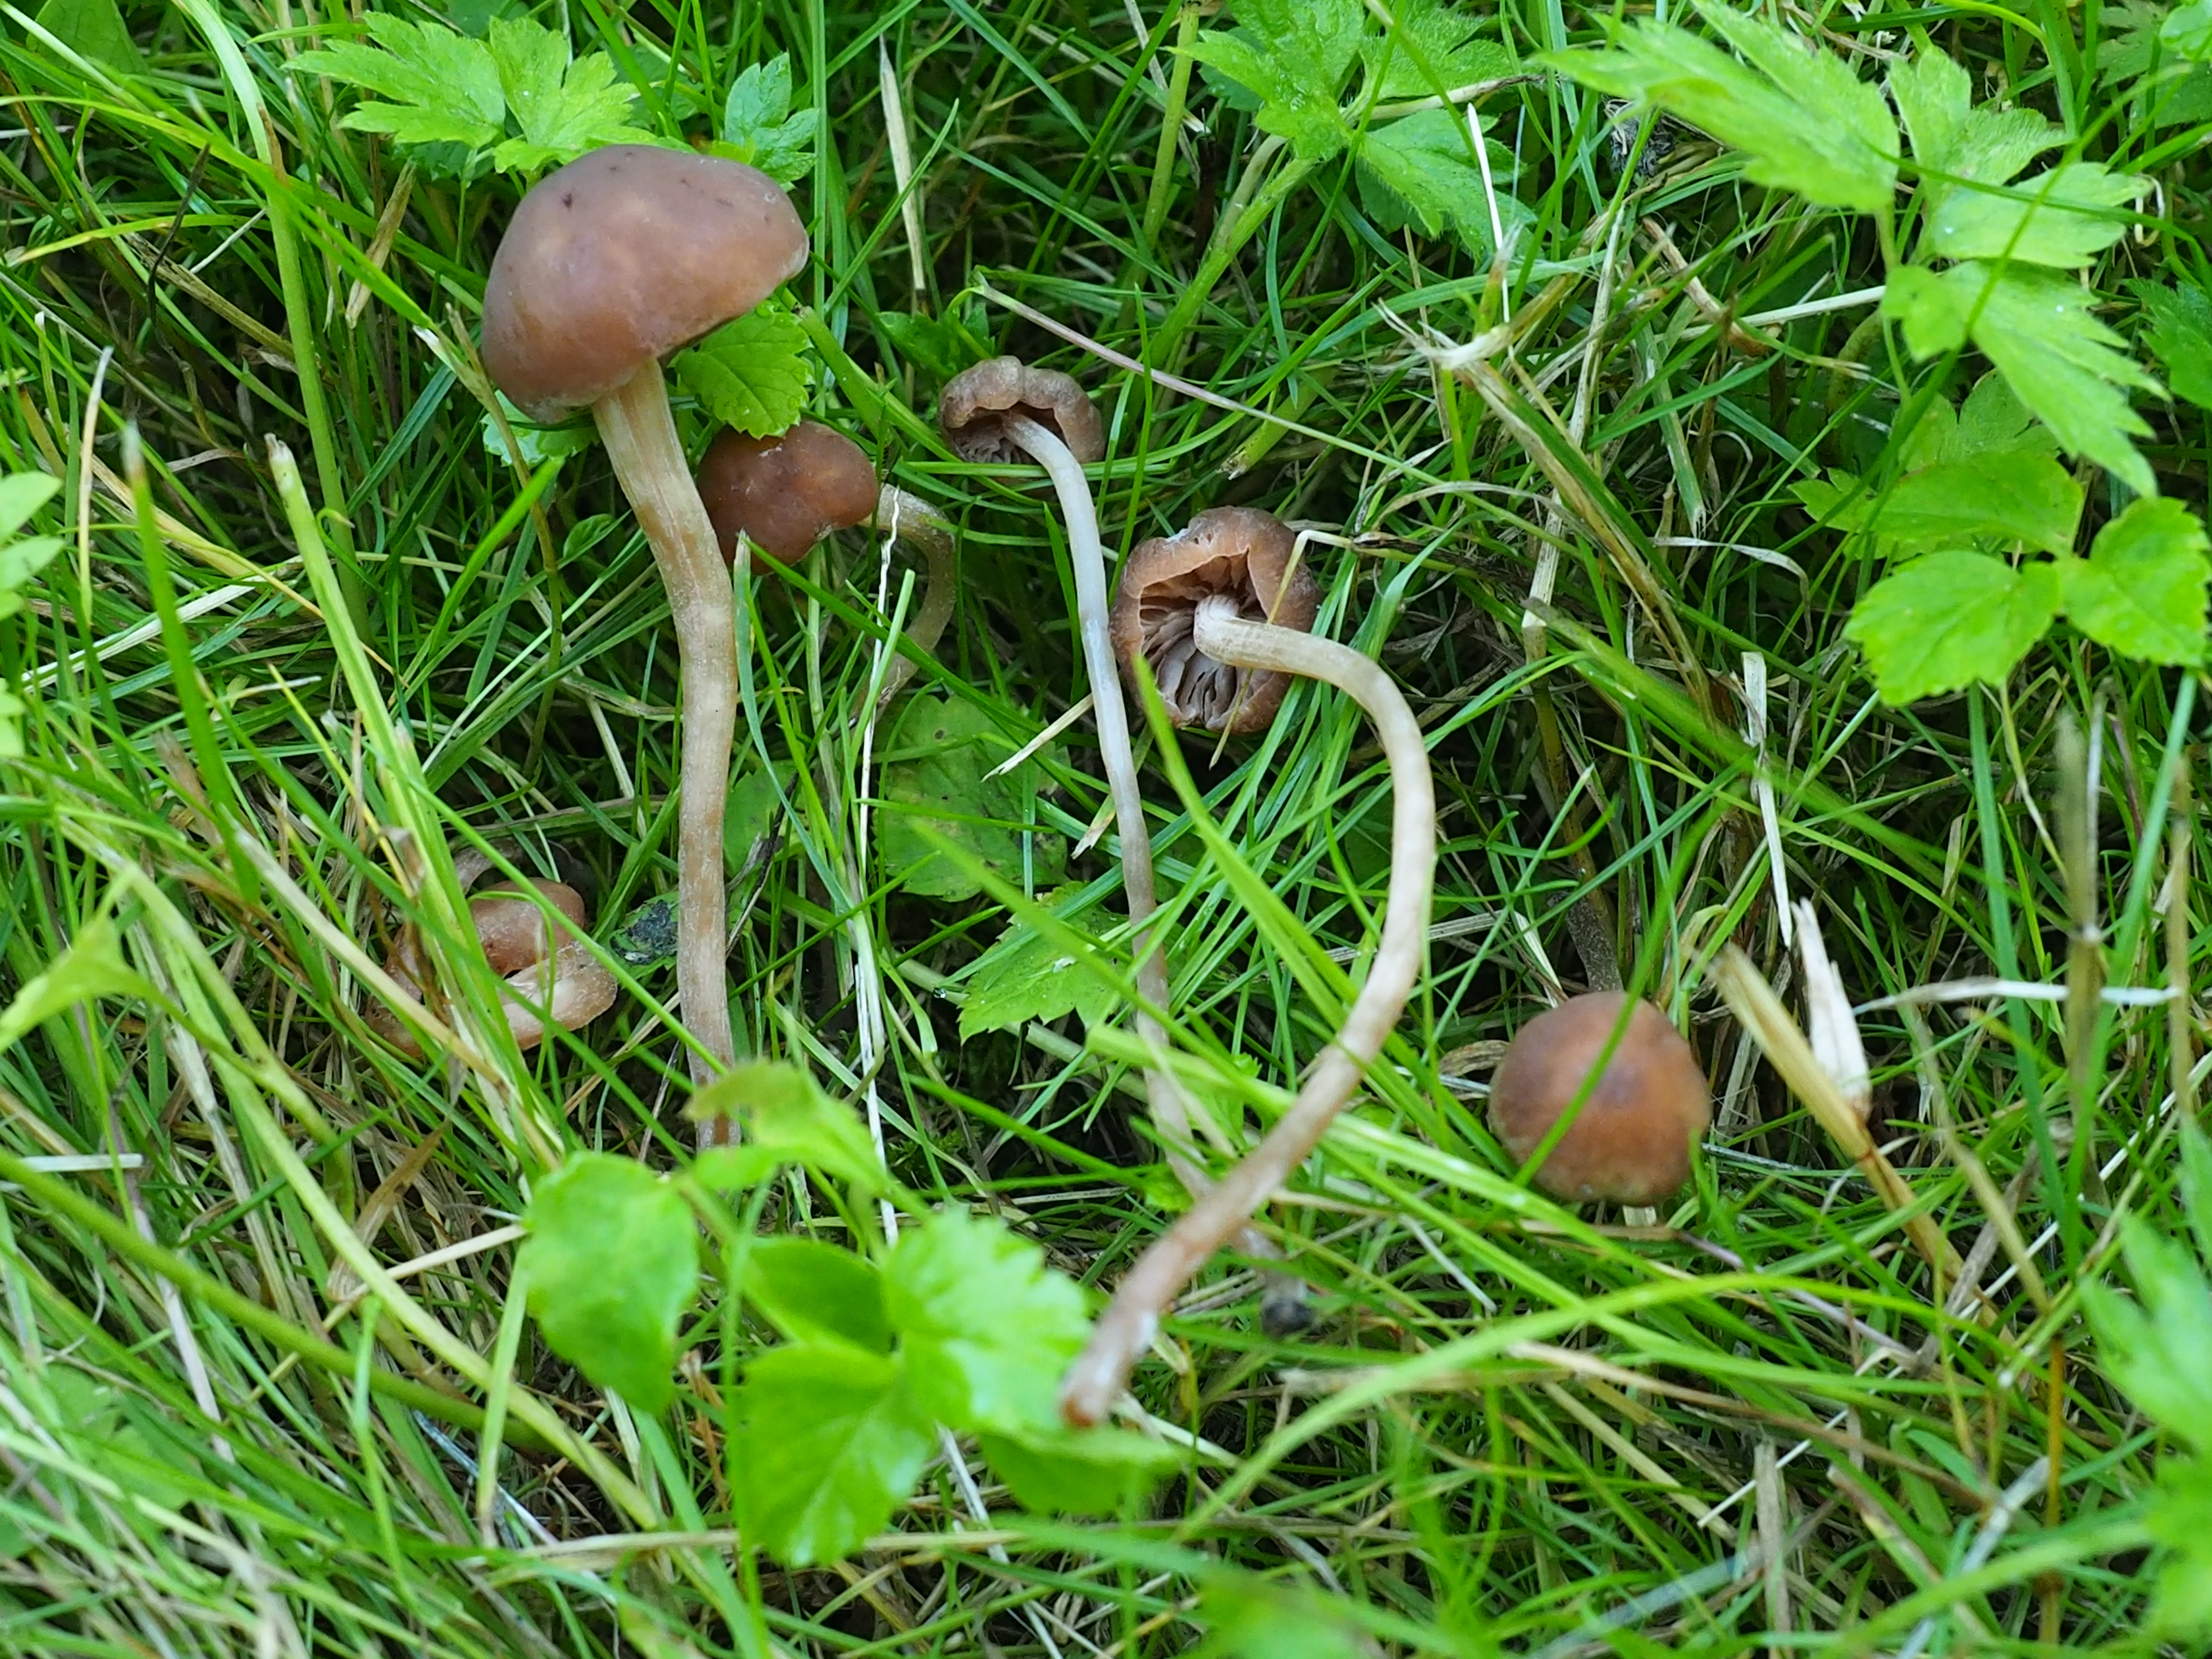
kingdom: Fungi
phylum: Basidiomycota
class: Agaricomycetes
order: Agaricales
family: Bolbitiaceae
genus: Panaeolina
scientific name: Panaeolina foenisecii
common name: Brown hay cap
